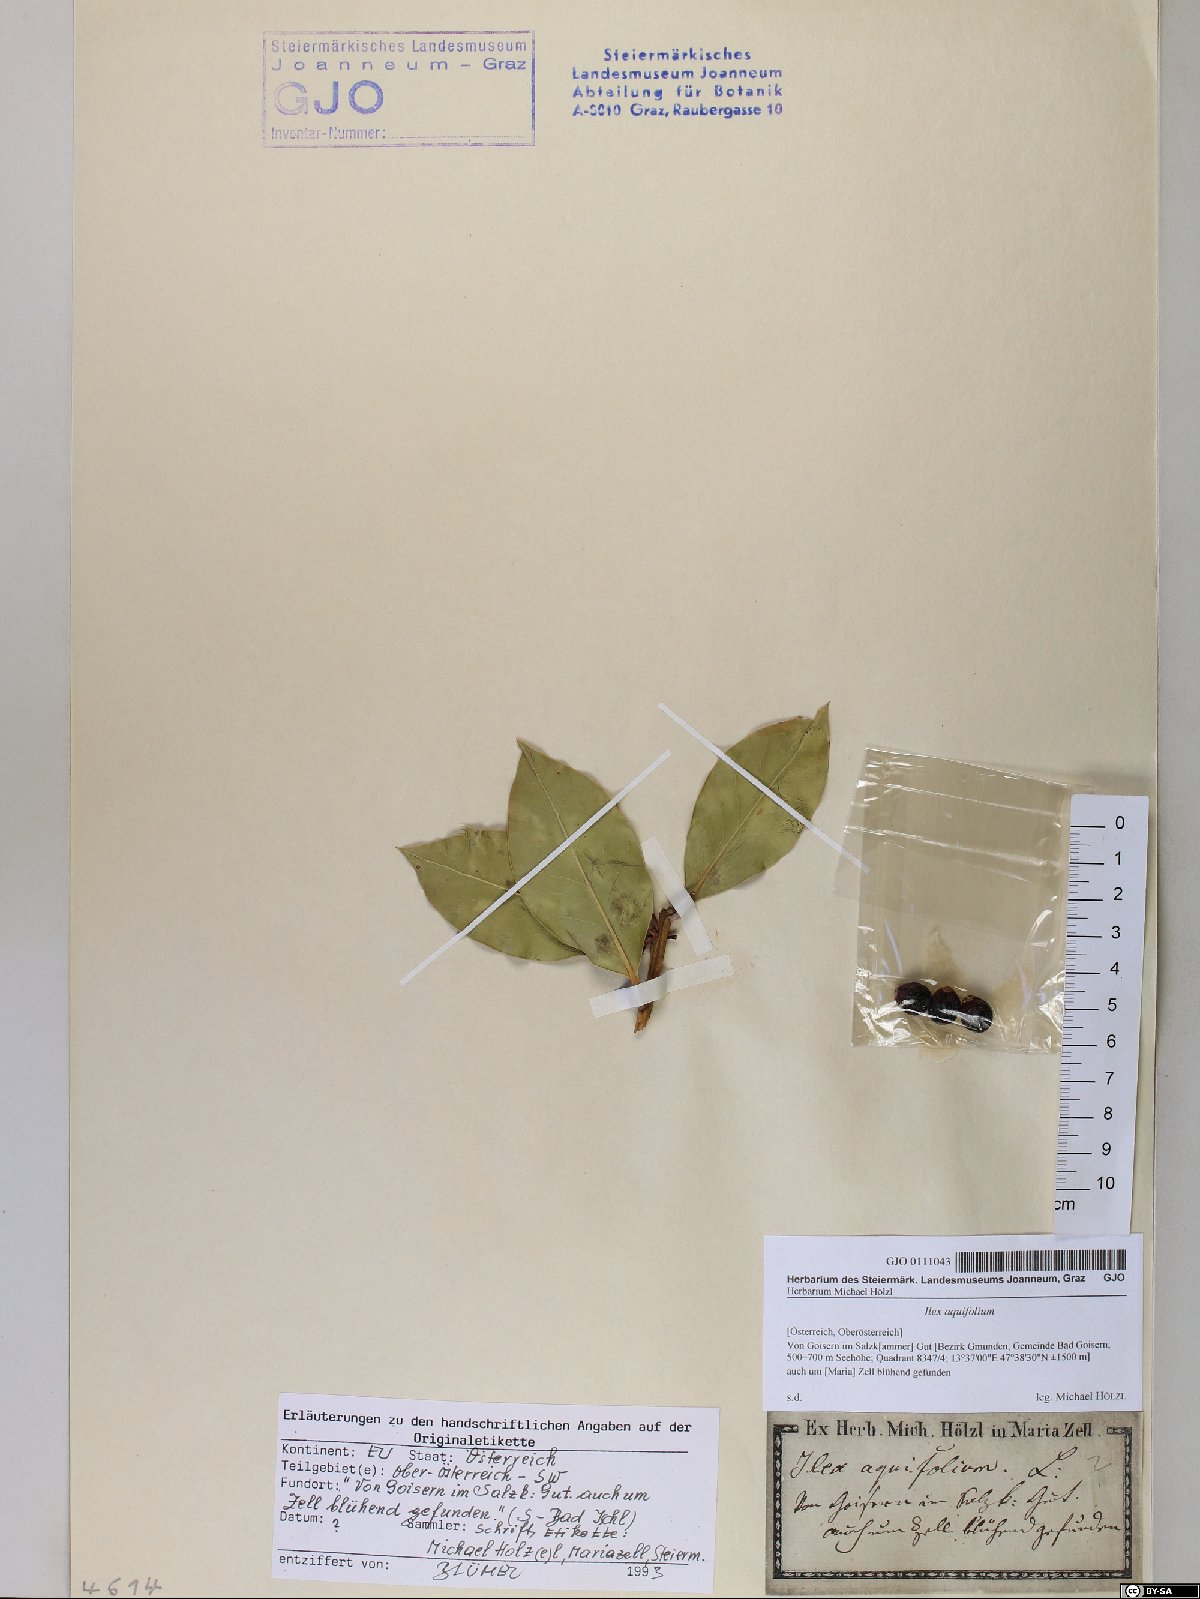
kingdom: Plantae
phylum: Tracheophyta
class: Magnoliopsida
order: Aquifoliales
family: Aquifoliaceae
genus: Ilex
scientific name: Ilex aquifolium
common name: English holly
